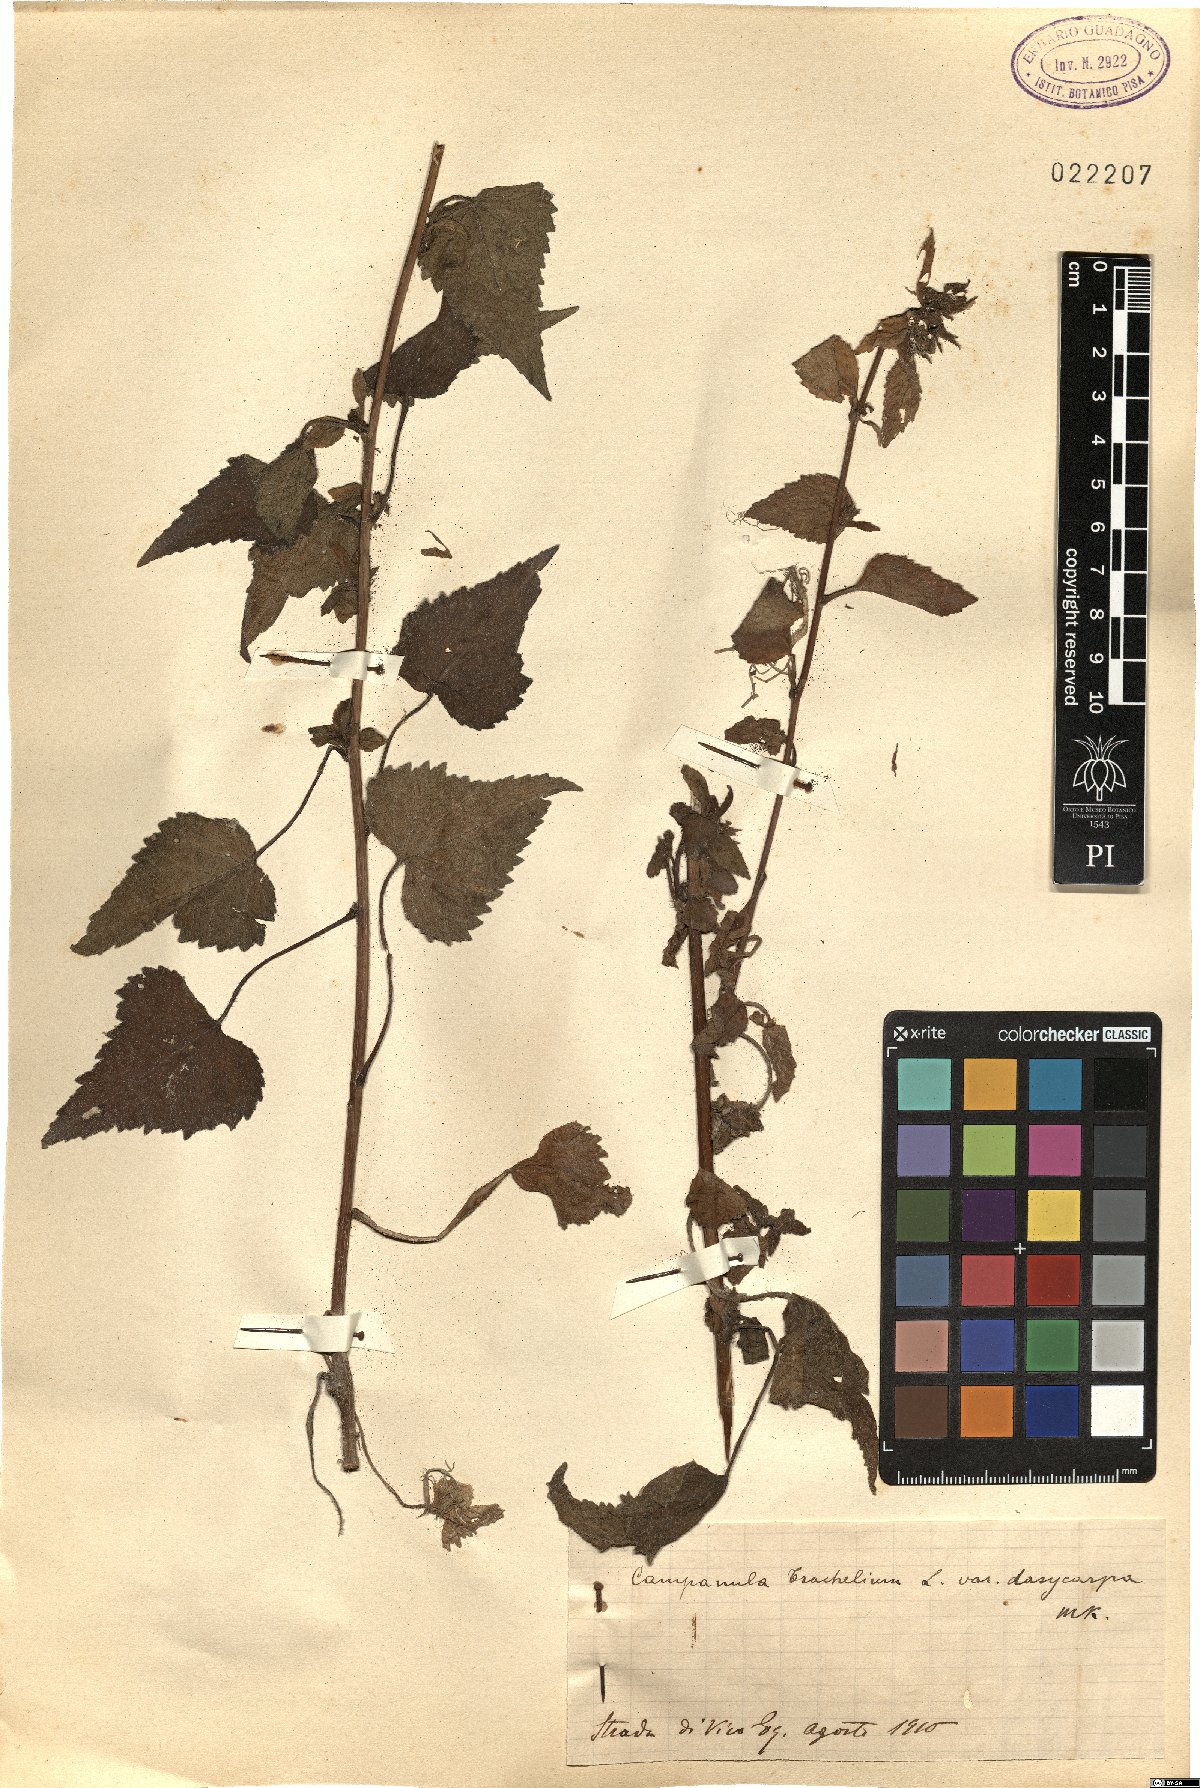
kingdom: Plantae
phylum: Tracheophyta
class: Magnoliopsida
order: Asterales
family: Campanulaceae
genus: Campanula
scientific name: Campanula trachelium
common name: Nettle-leaved bellflower
